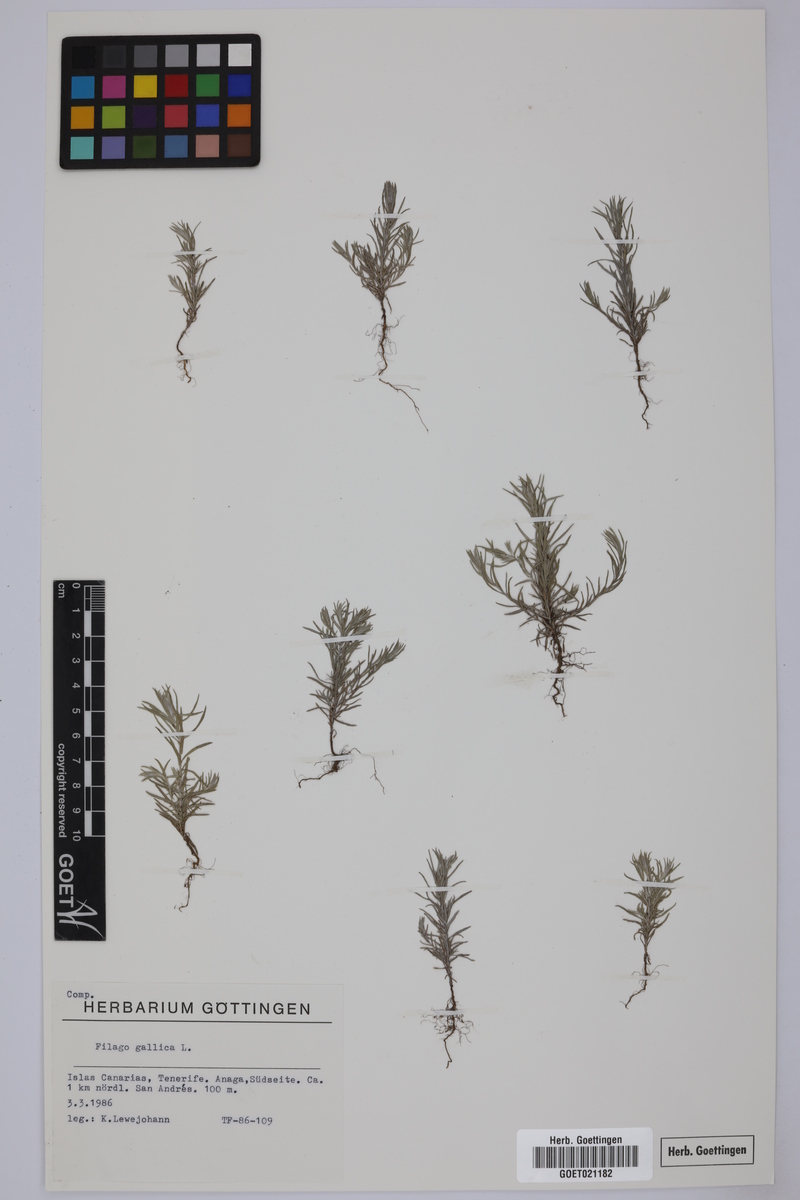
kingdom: Plantae
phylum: Tracheophyta
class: Magnoliopsida
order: Asterales
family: Asteraceae
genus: Logfia
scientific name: Logfia gallica
